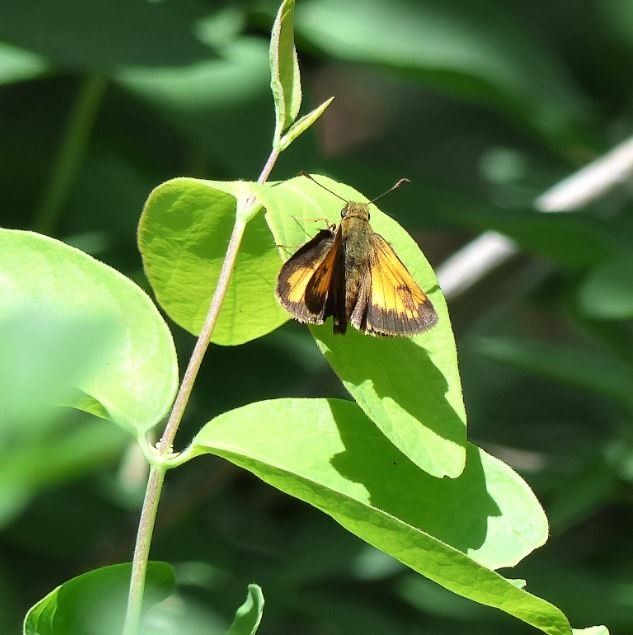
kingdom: Animalia
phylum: Arthropoda
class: Insecta
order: Lepidoptera
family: Hesperiidae
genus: Lon
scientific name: Lon hobomok
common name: Hobomok Skipper
